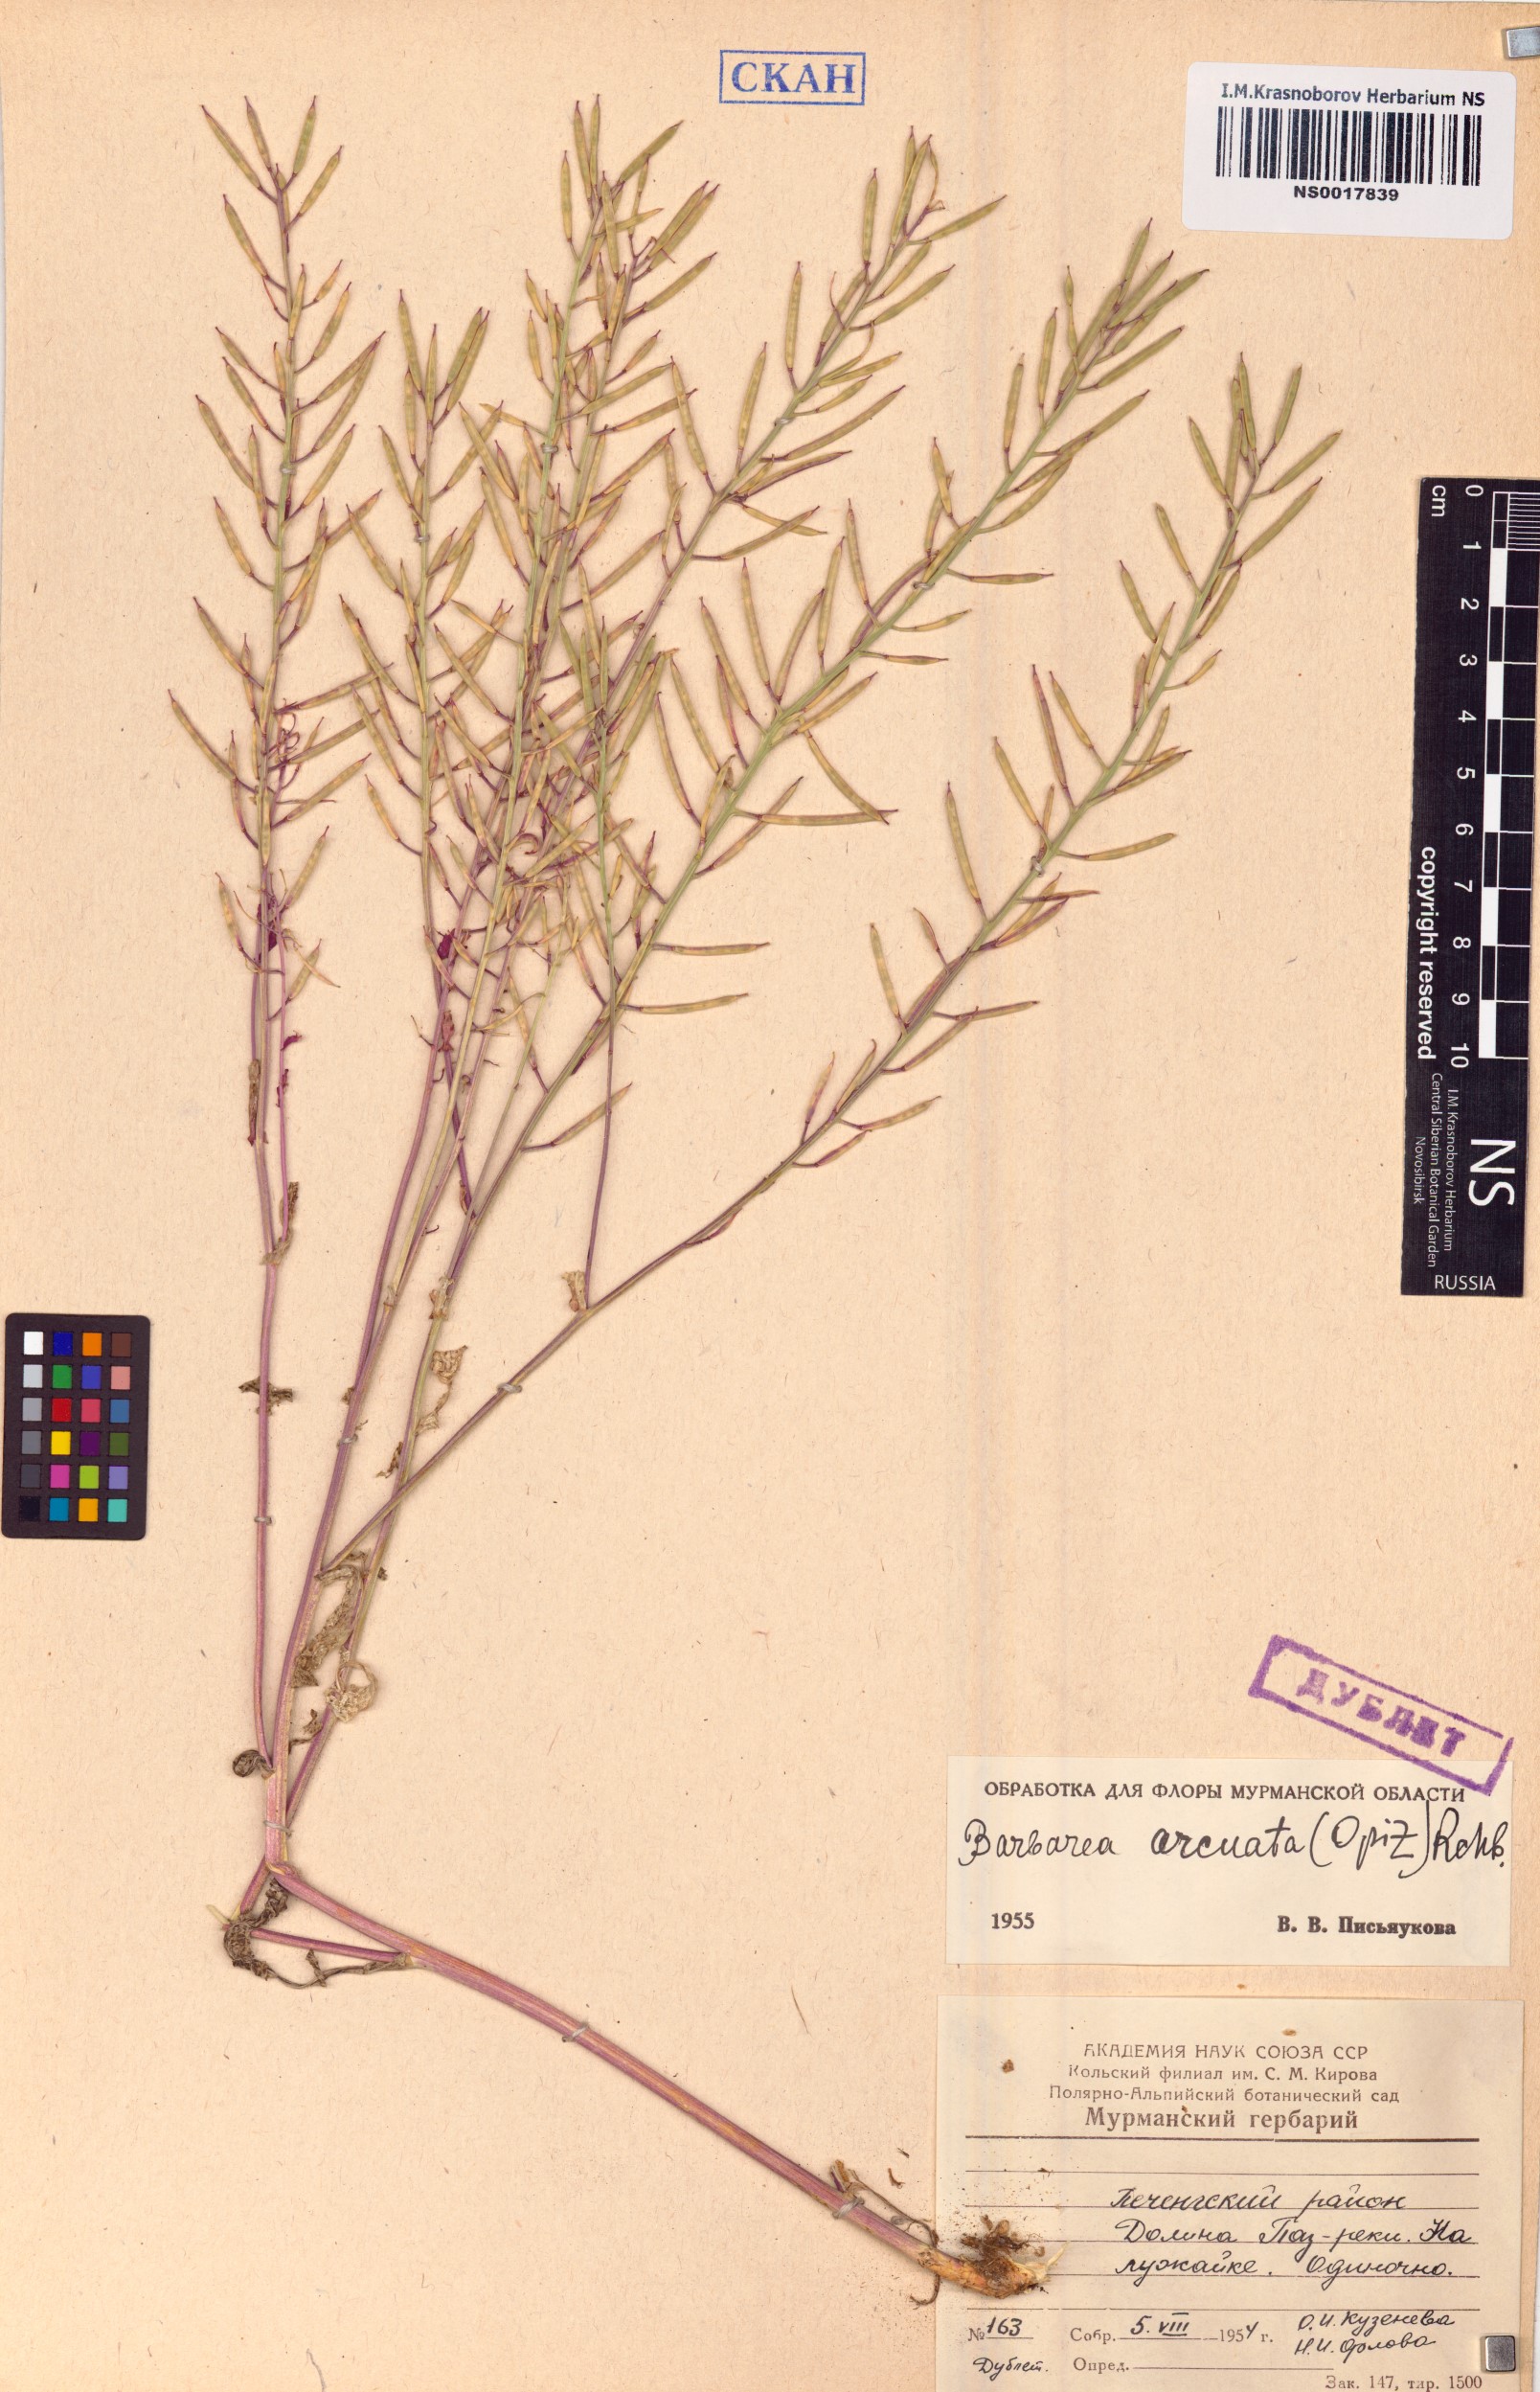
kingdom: Plantae
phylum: Tracheophyta
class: Magnoliopsida
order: Brassicales
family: Brassicaceae
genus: Barbarea
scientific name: Barbarea vulgaris
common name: Cressy-greens
